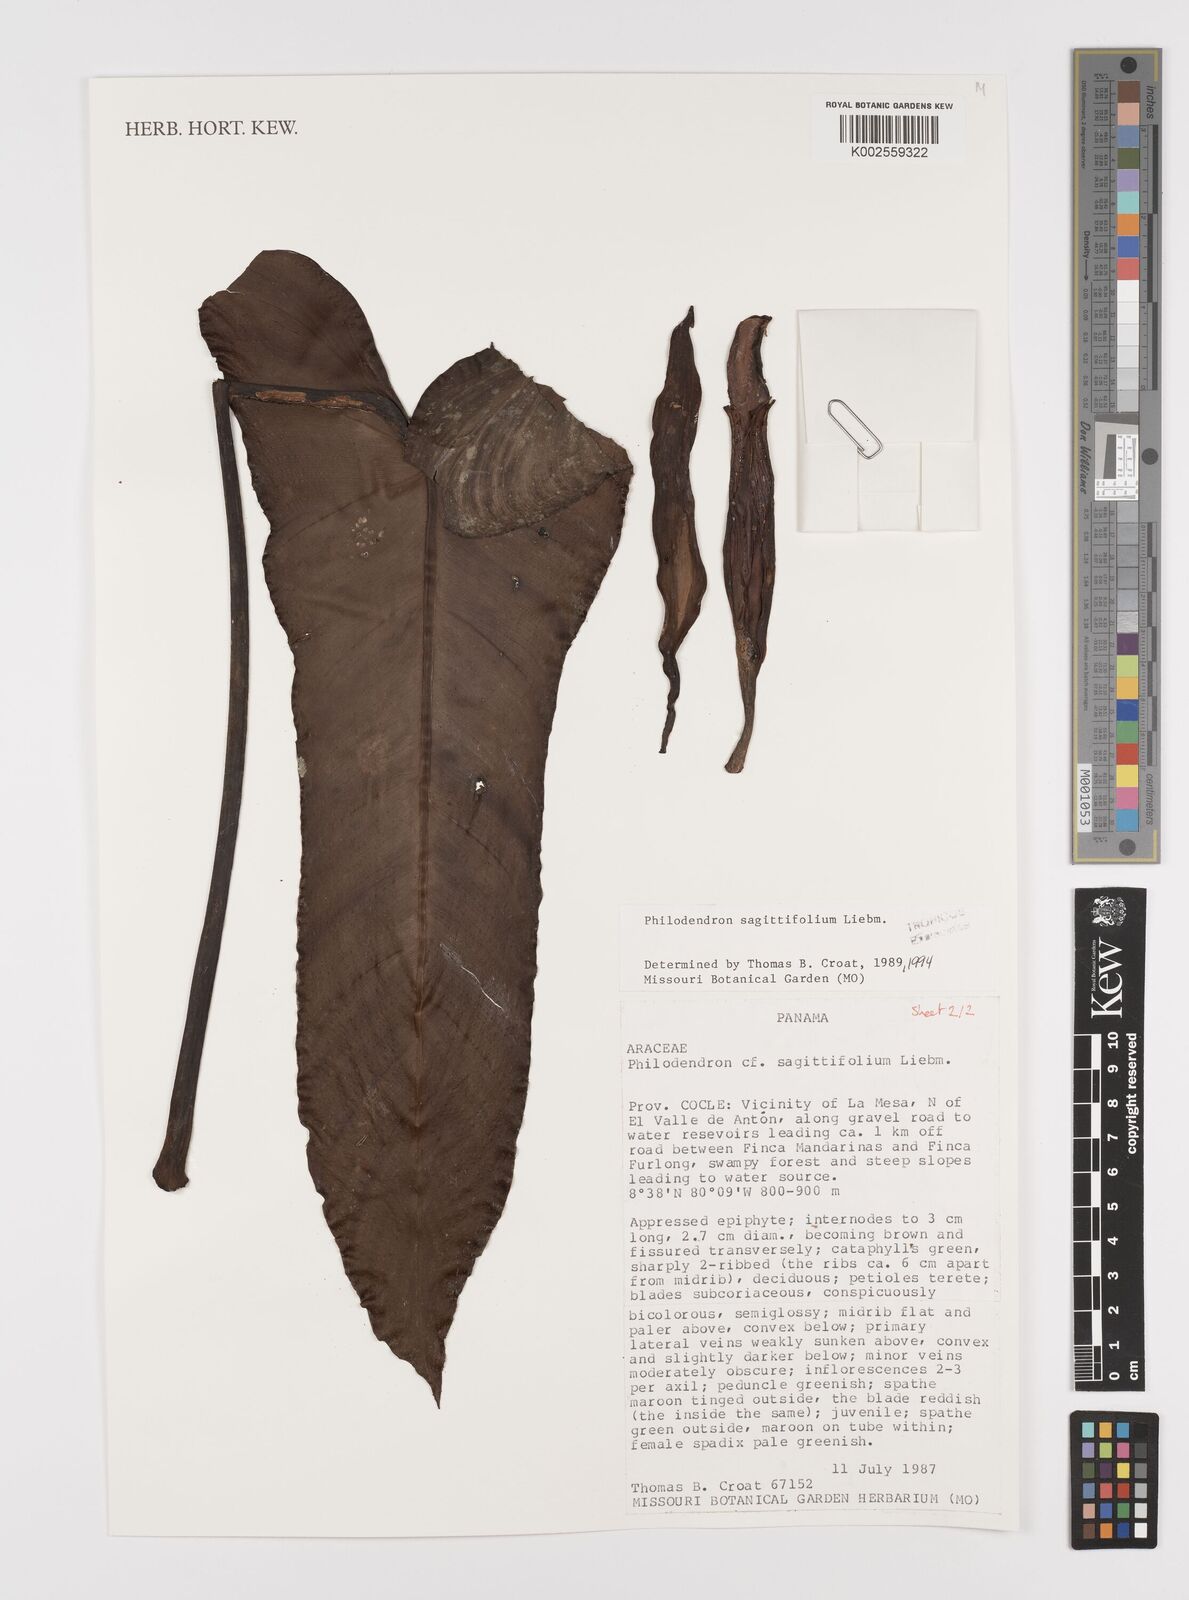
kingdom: Plantae
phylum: Tracheophyta
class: Liliopsida
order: Alismatales
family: Araceae
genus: Philodendron
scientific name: Philodendron sagittifolium
